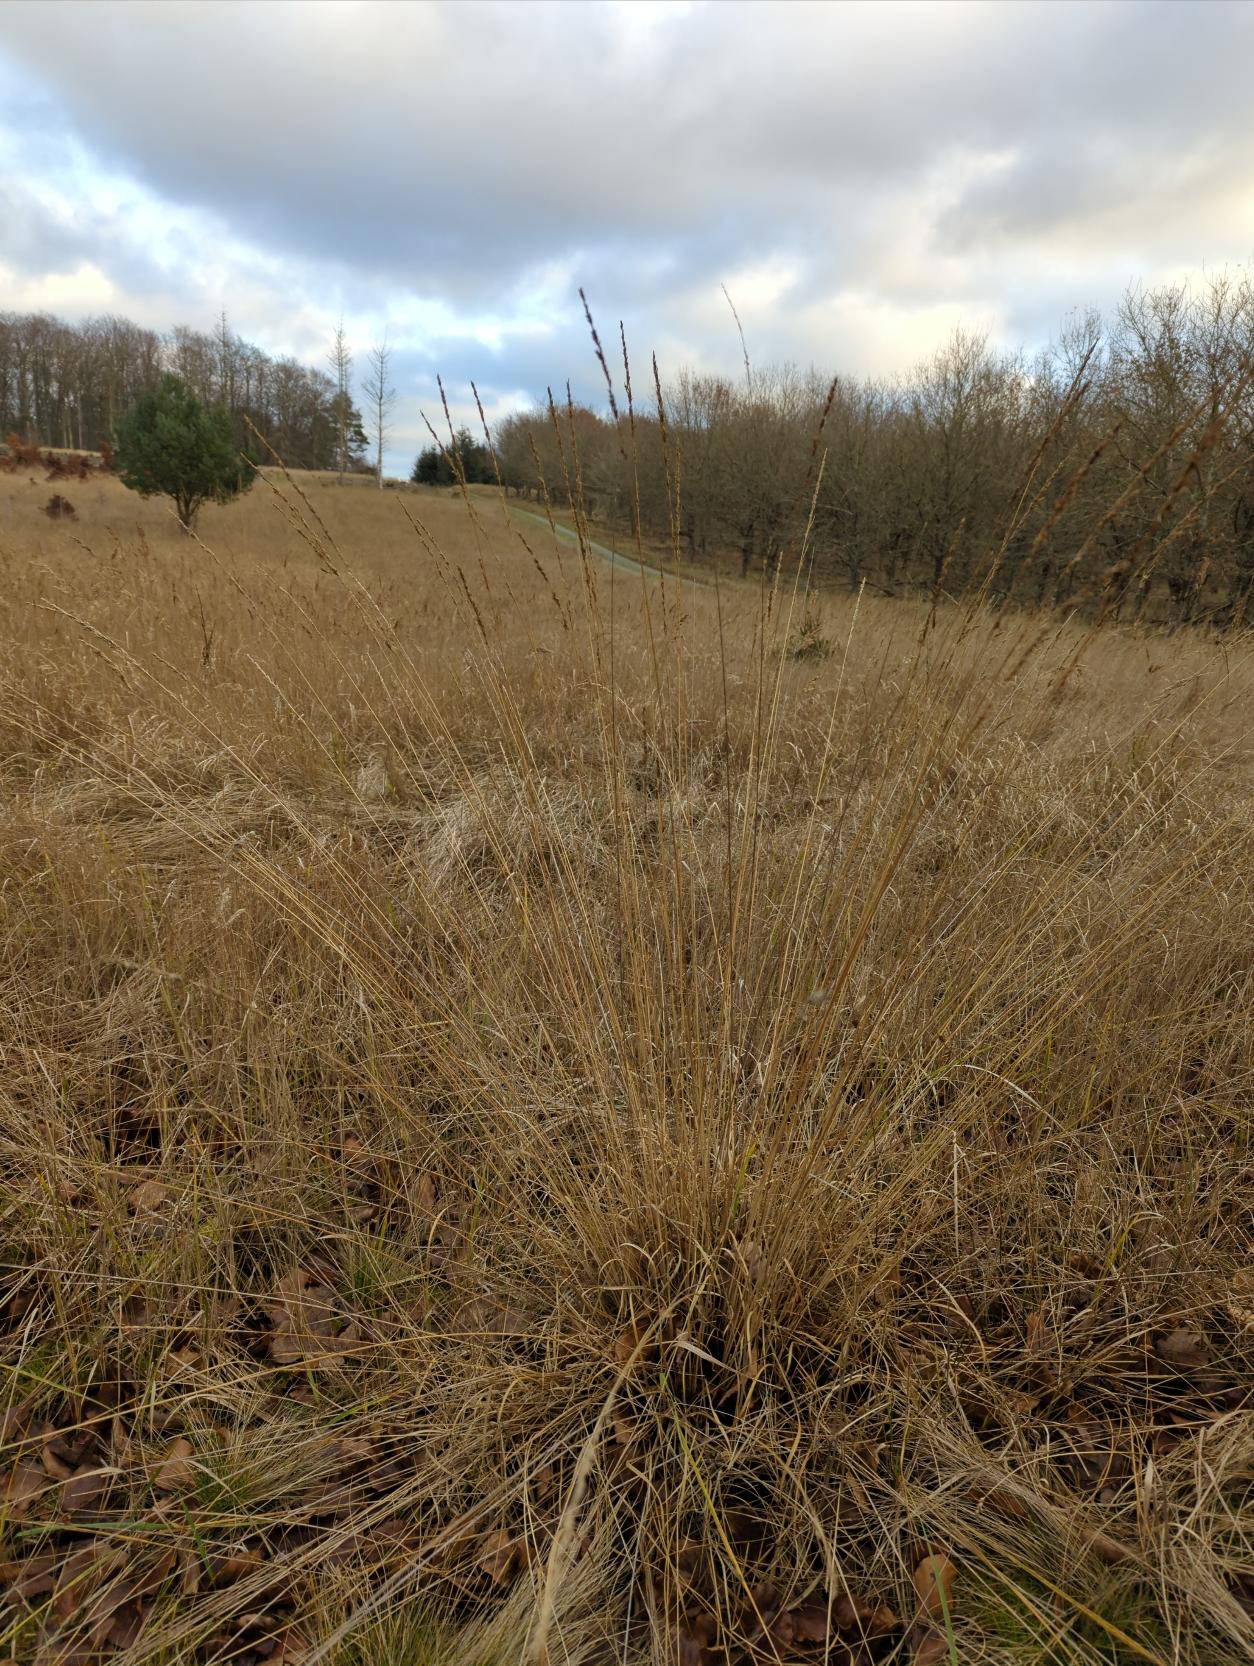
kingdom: Plantae
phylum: Tracheophyta
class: Liliopsida
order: Poales
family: Poaceae
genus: Molinia
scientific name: Molinia caerulea
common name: Blåtop
